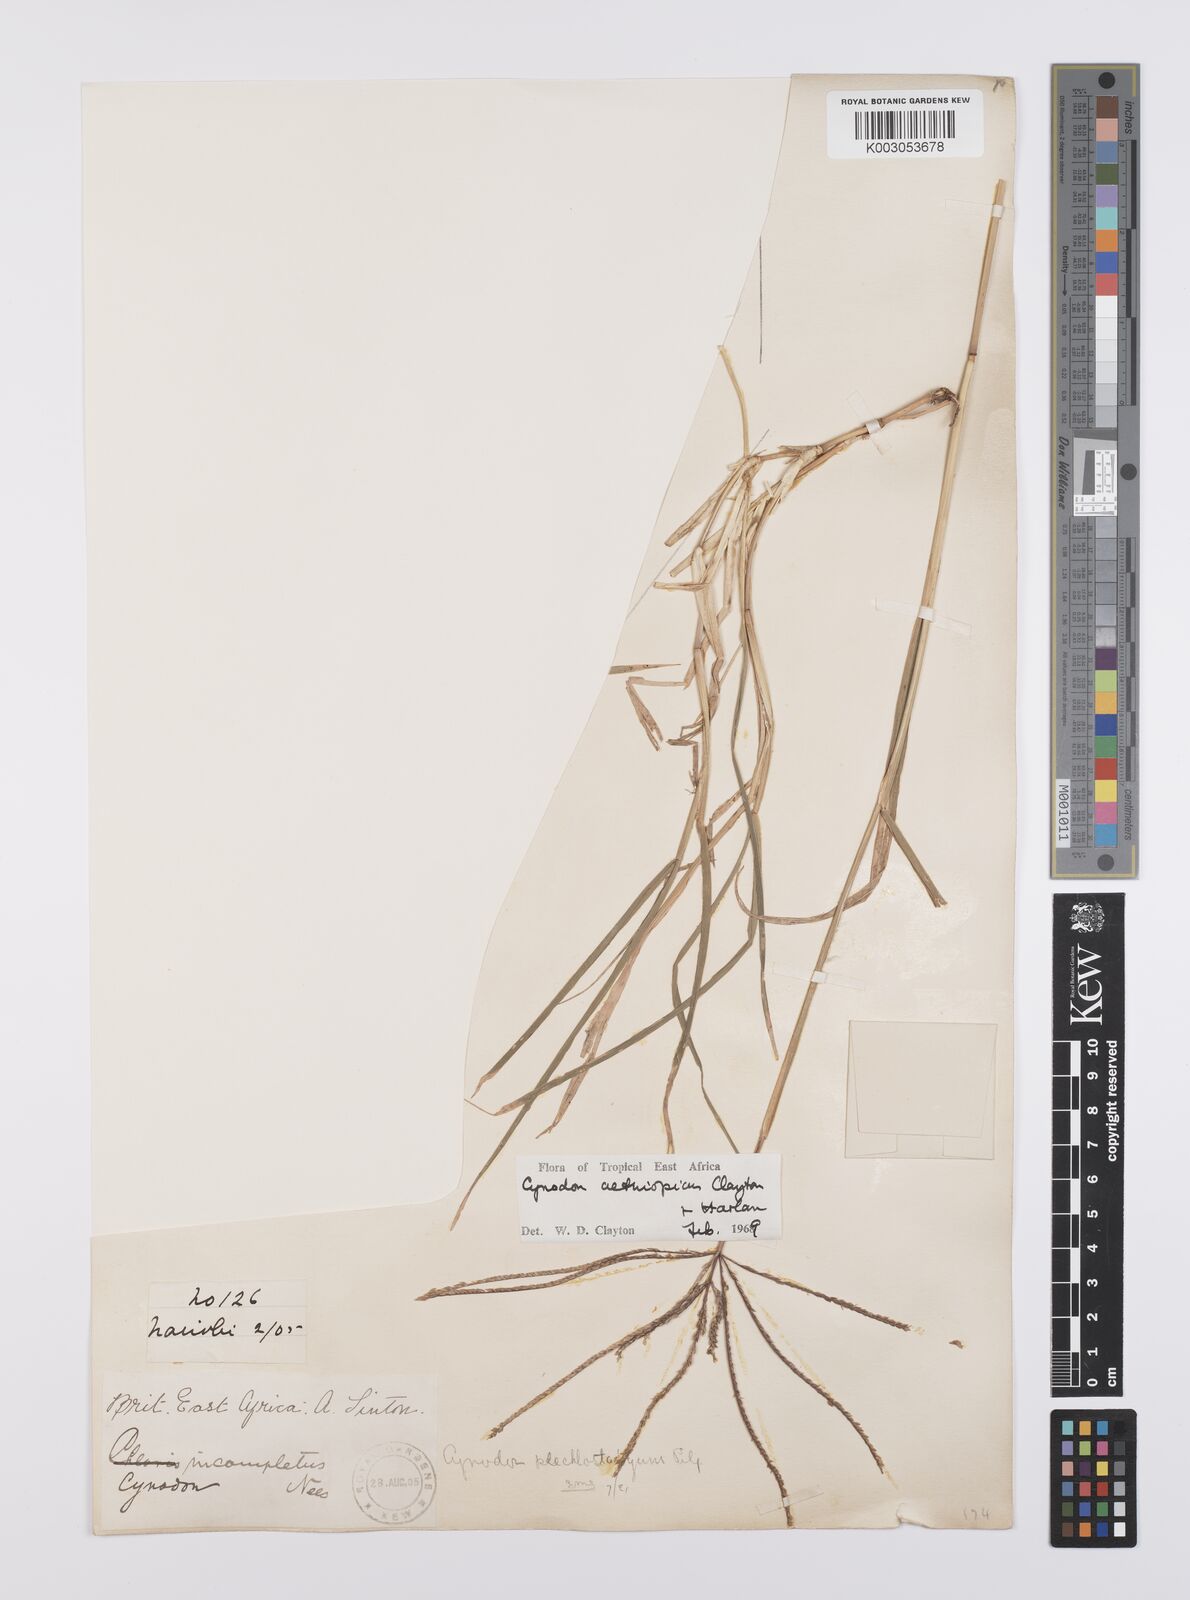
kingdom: Plantae
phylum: Tracheophyta
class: Liliopsida
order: Poales
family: Poaceae
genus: Cynodon
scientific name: Cynodon aethiopicus
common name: Ethiopian dogstooth grass
